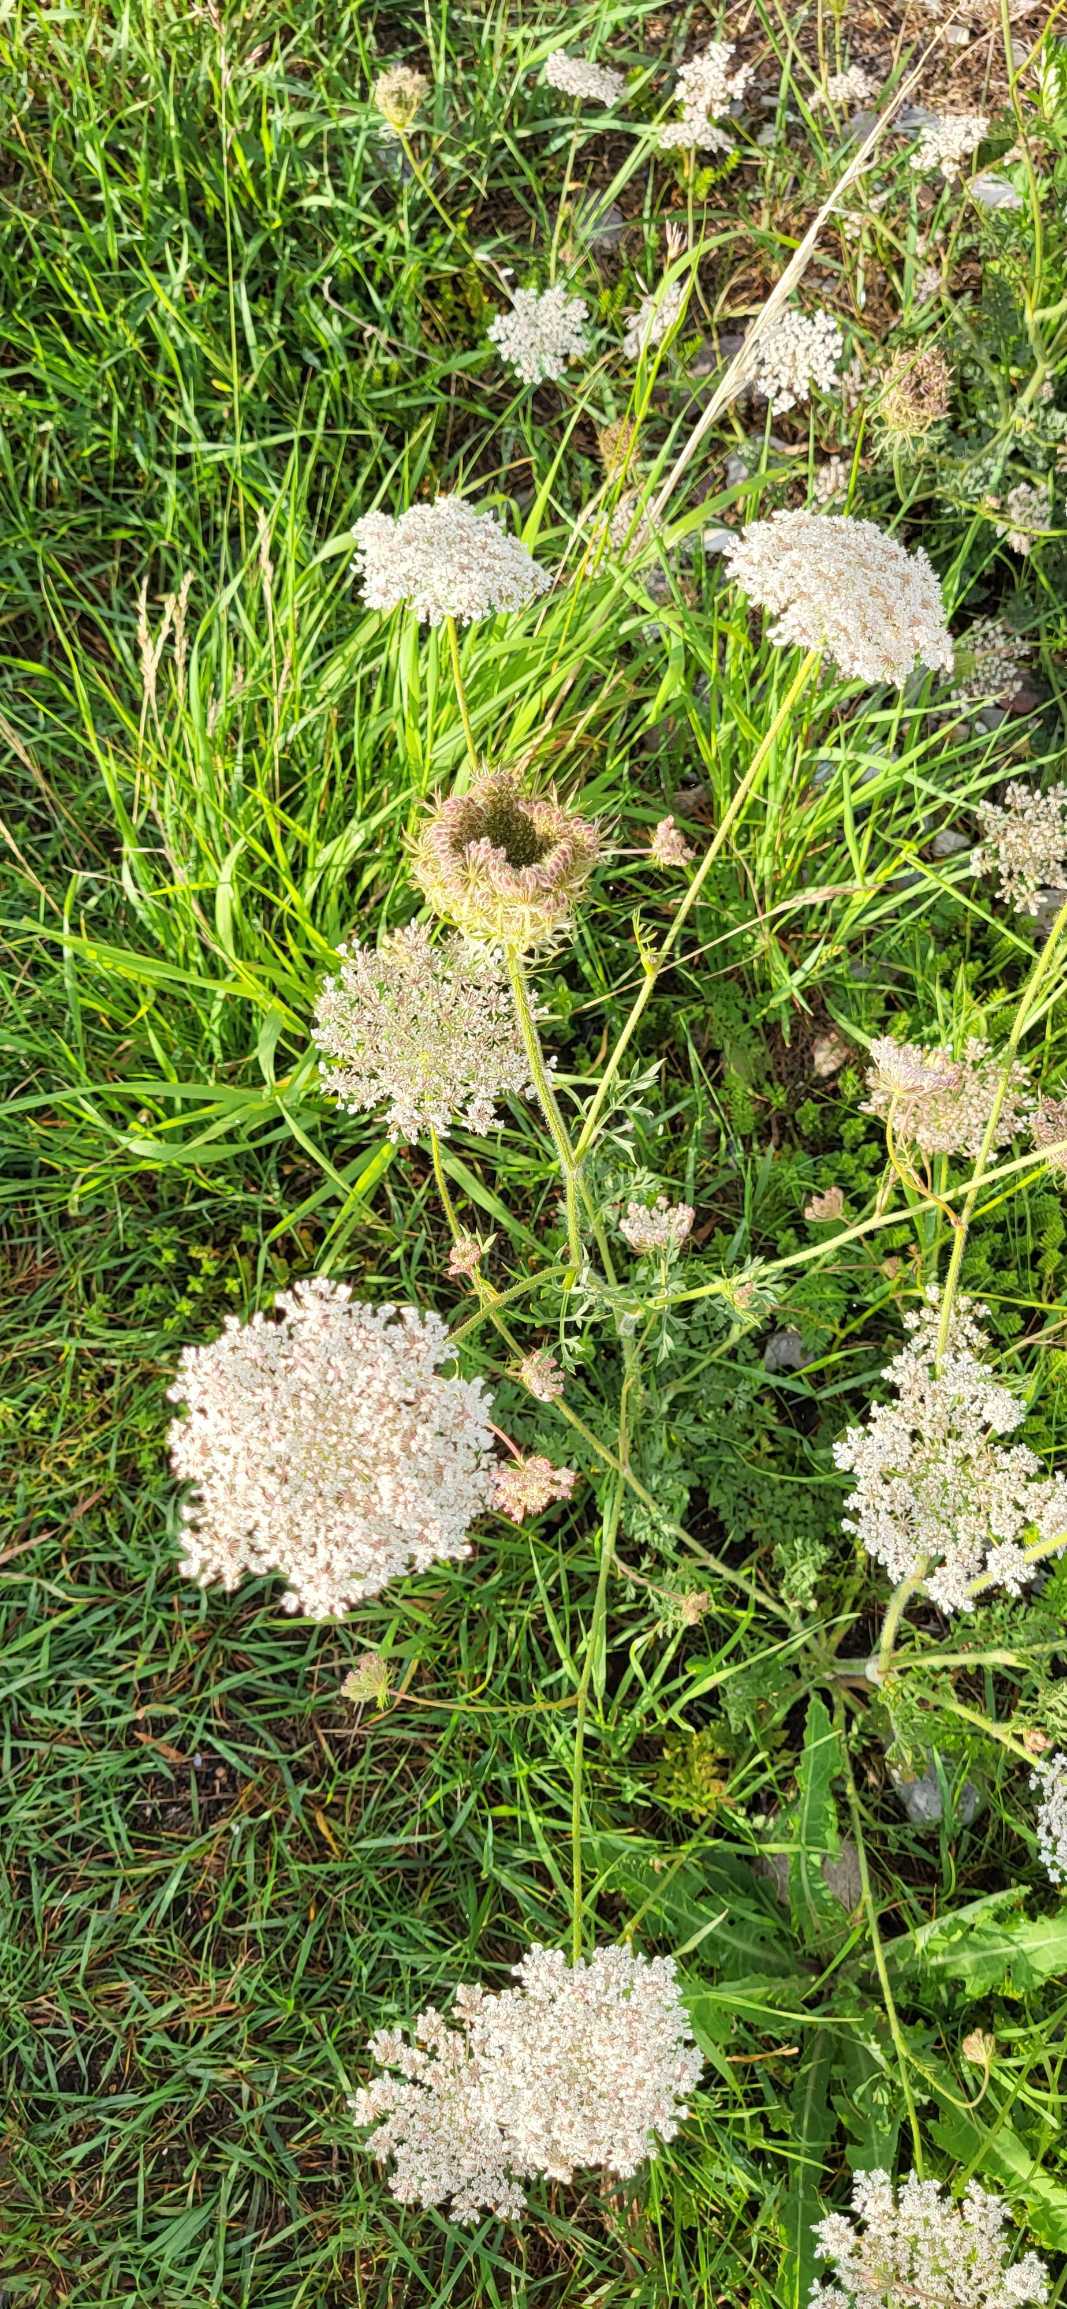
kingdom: Plantae
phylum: Tracheophyta
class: Magnoliopsida
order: Apiales
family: Apiaceae
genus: Daucus
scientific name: Daucus carota
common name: Gulerod
